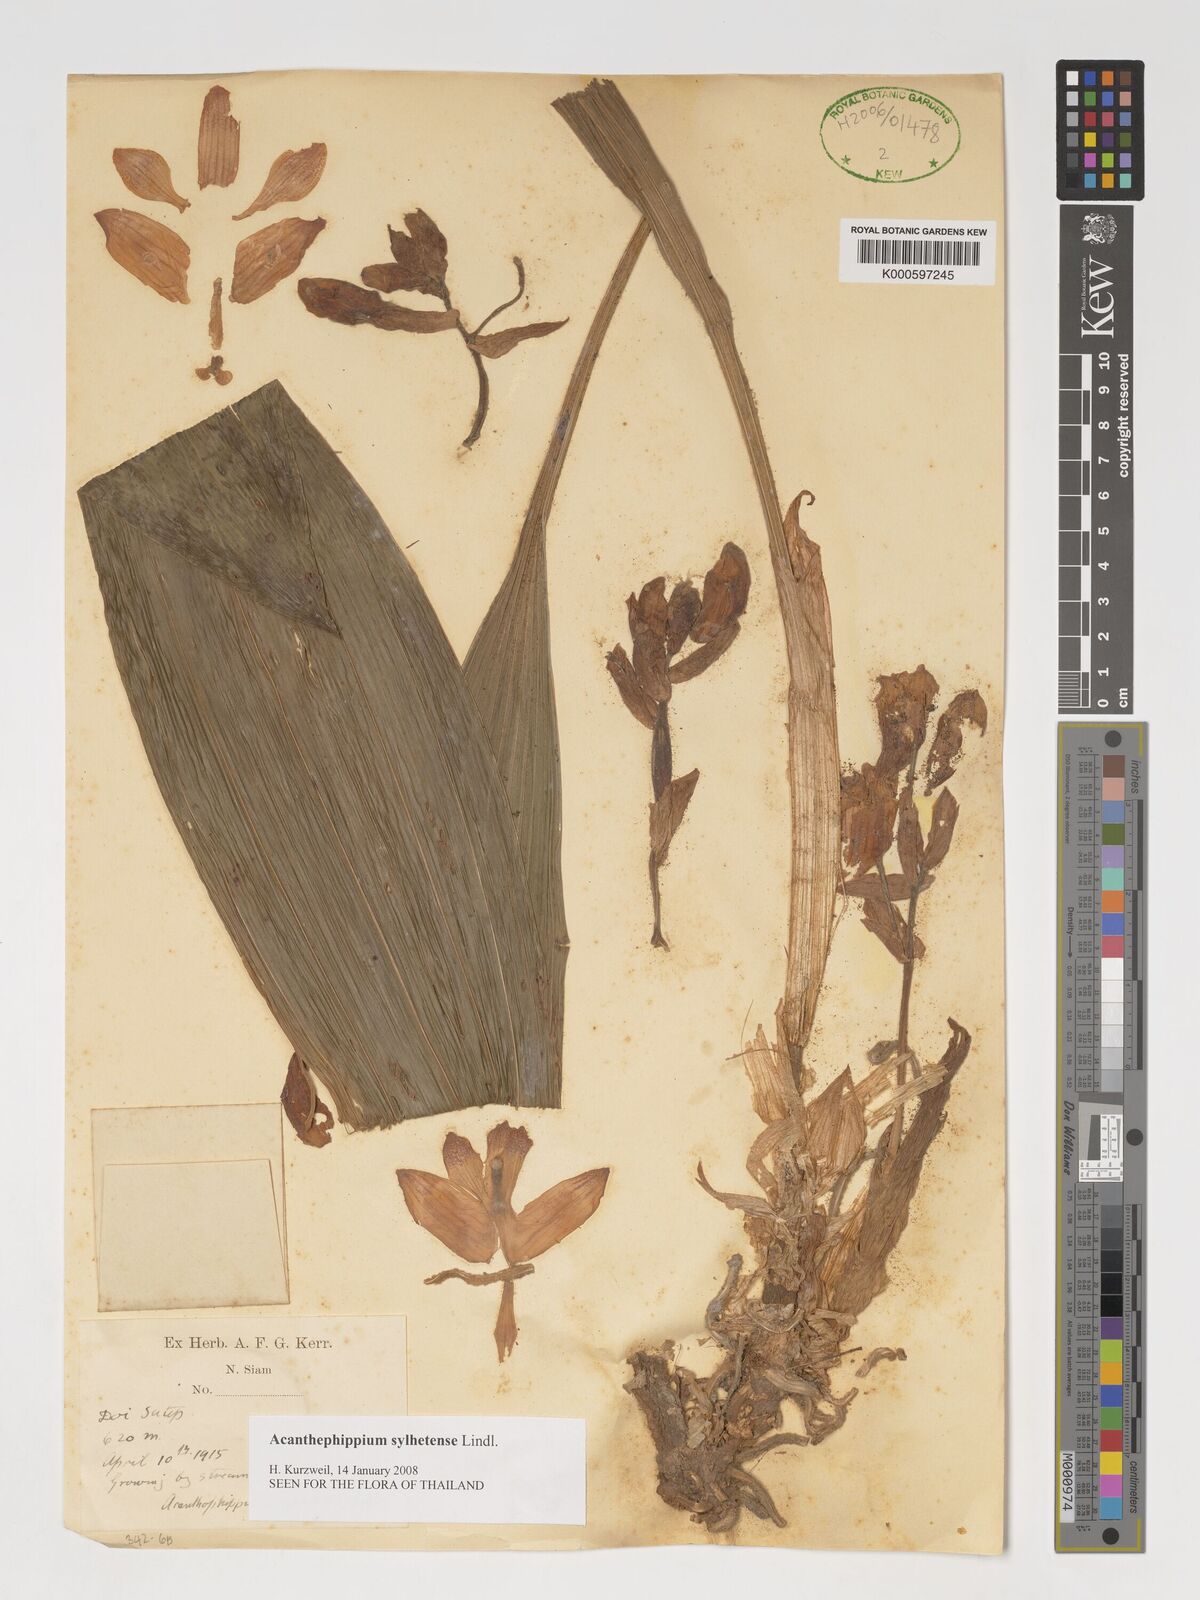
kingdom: Plantae
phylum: Tracheophyta
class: Liliopsida
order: Asparagales
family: Orchidaceae
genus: Acanthophippium
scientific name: Acanthophippium sylhetense
